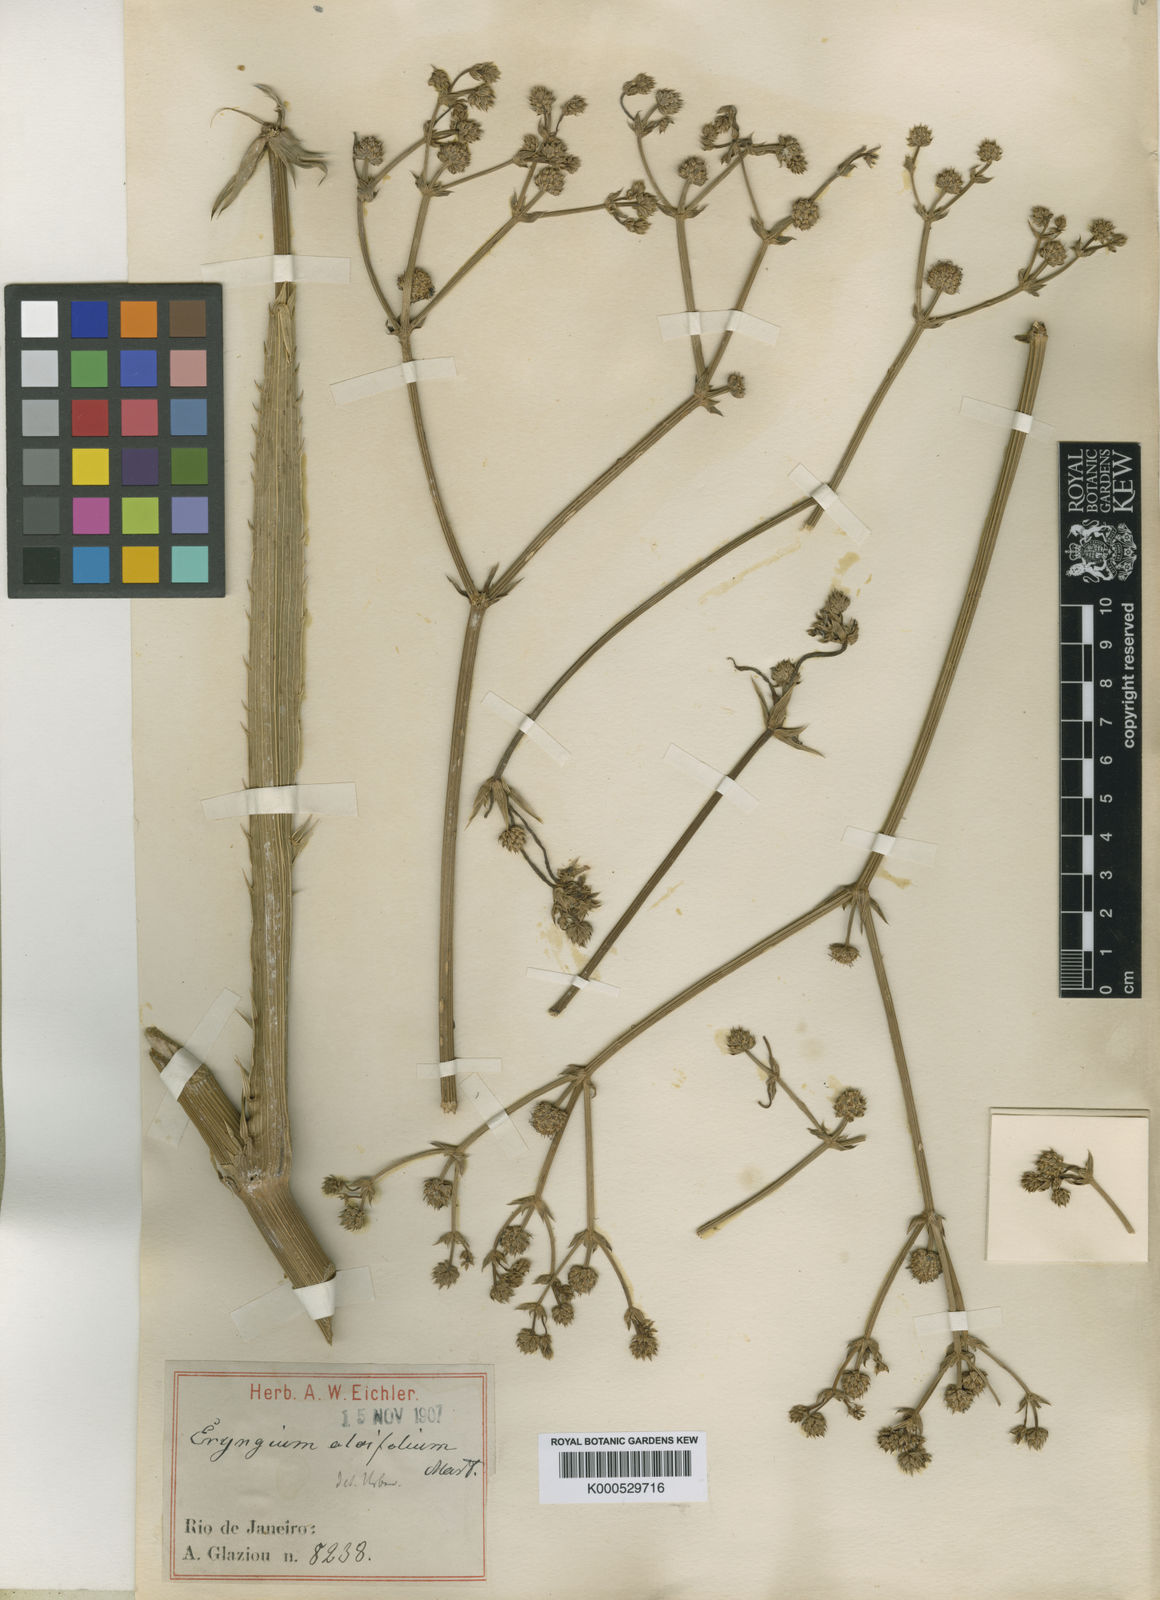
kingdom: Plantae
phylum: Tracheophyta
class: Magnoliopsida
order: Apiales
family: Apiaceae
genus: Eryngium
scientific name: Eryngium aloifolium
